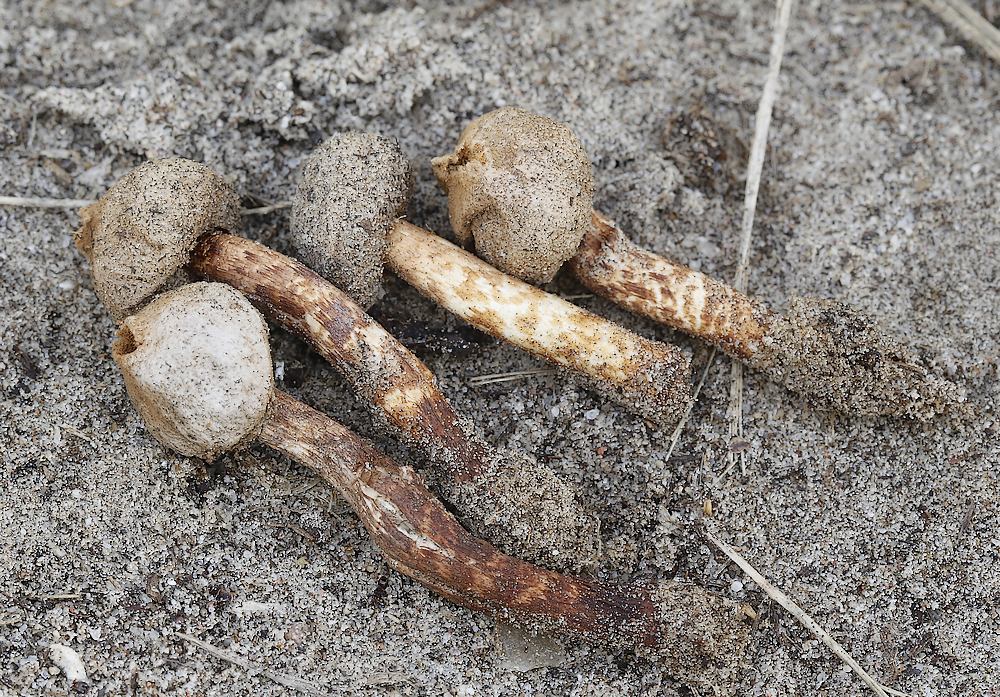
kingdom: Fungi
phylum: Basidiomycota
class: Agaricomycetes
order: Agaricales
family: Agaricaceae
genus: Tulostoma
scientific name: Tulostoma fimbriatum
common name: frynset stilkbovist
